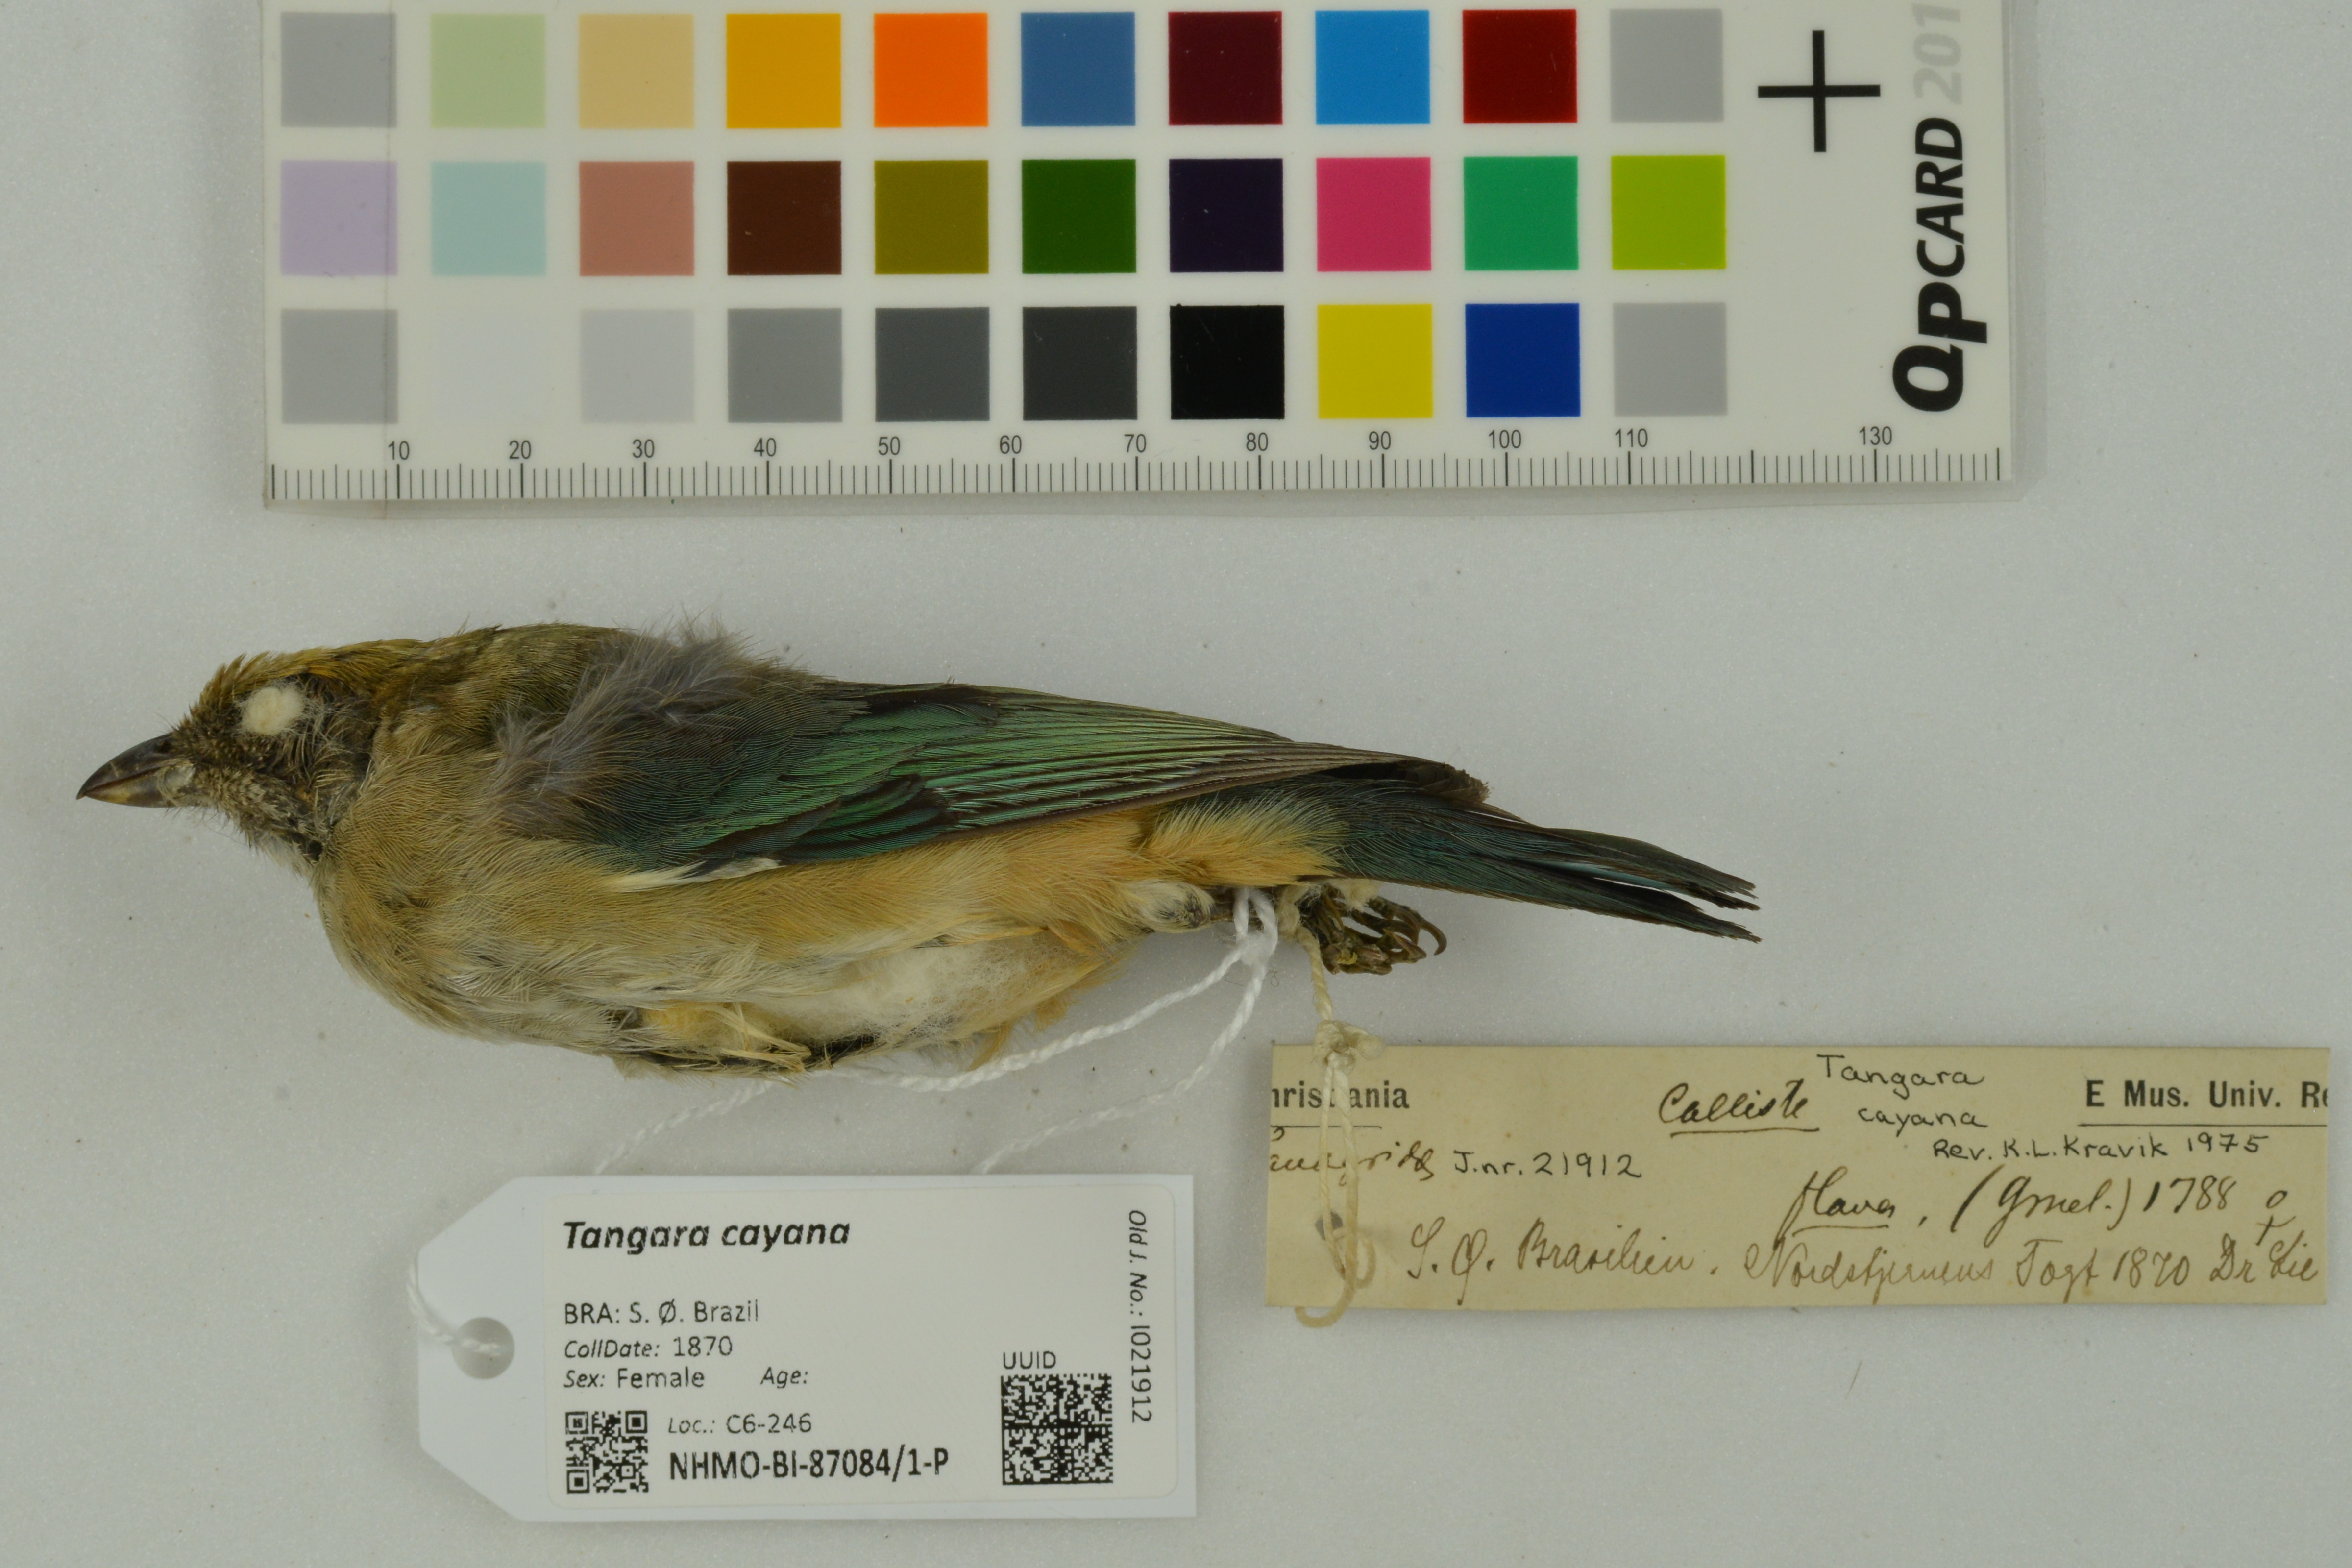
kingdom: Animalia
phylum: Chordata
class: Aves
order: Passeriformes
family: Thraupidae
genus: Stilpnia
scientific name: Stilpnia cayana
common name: Burnished-buff tanager
